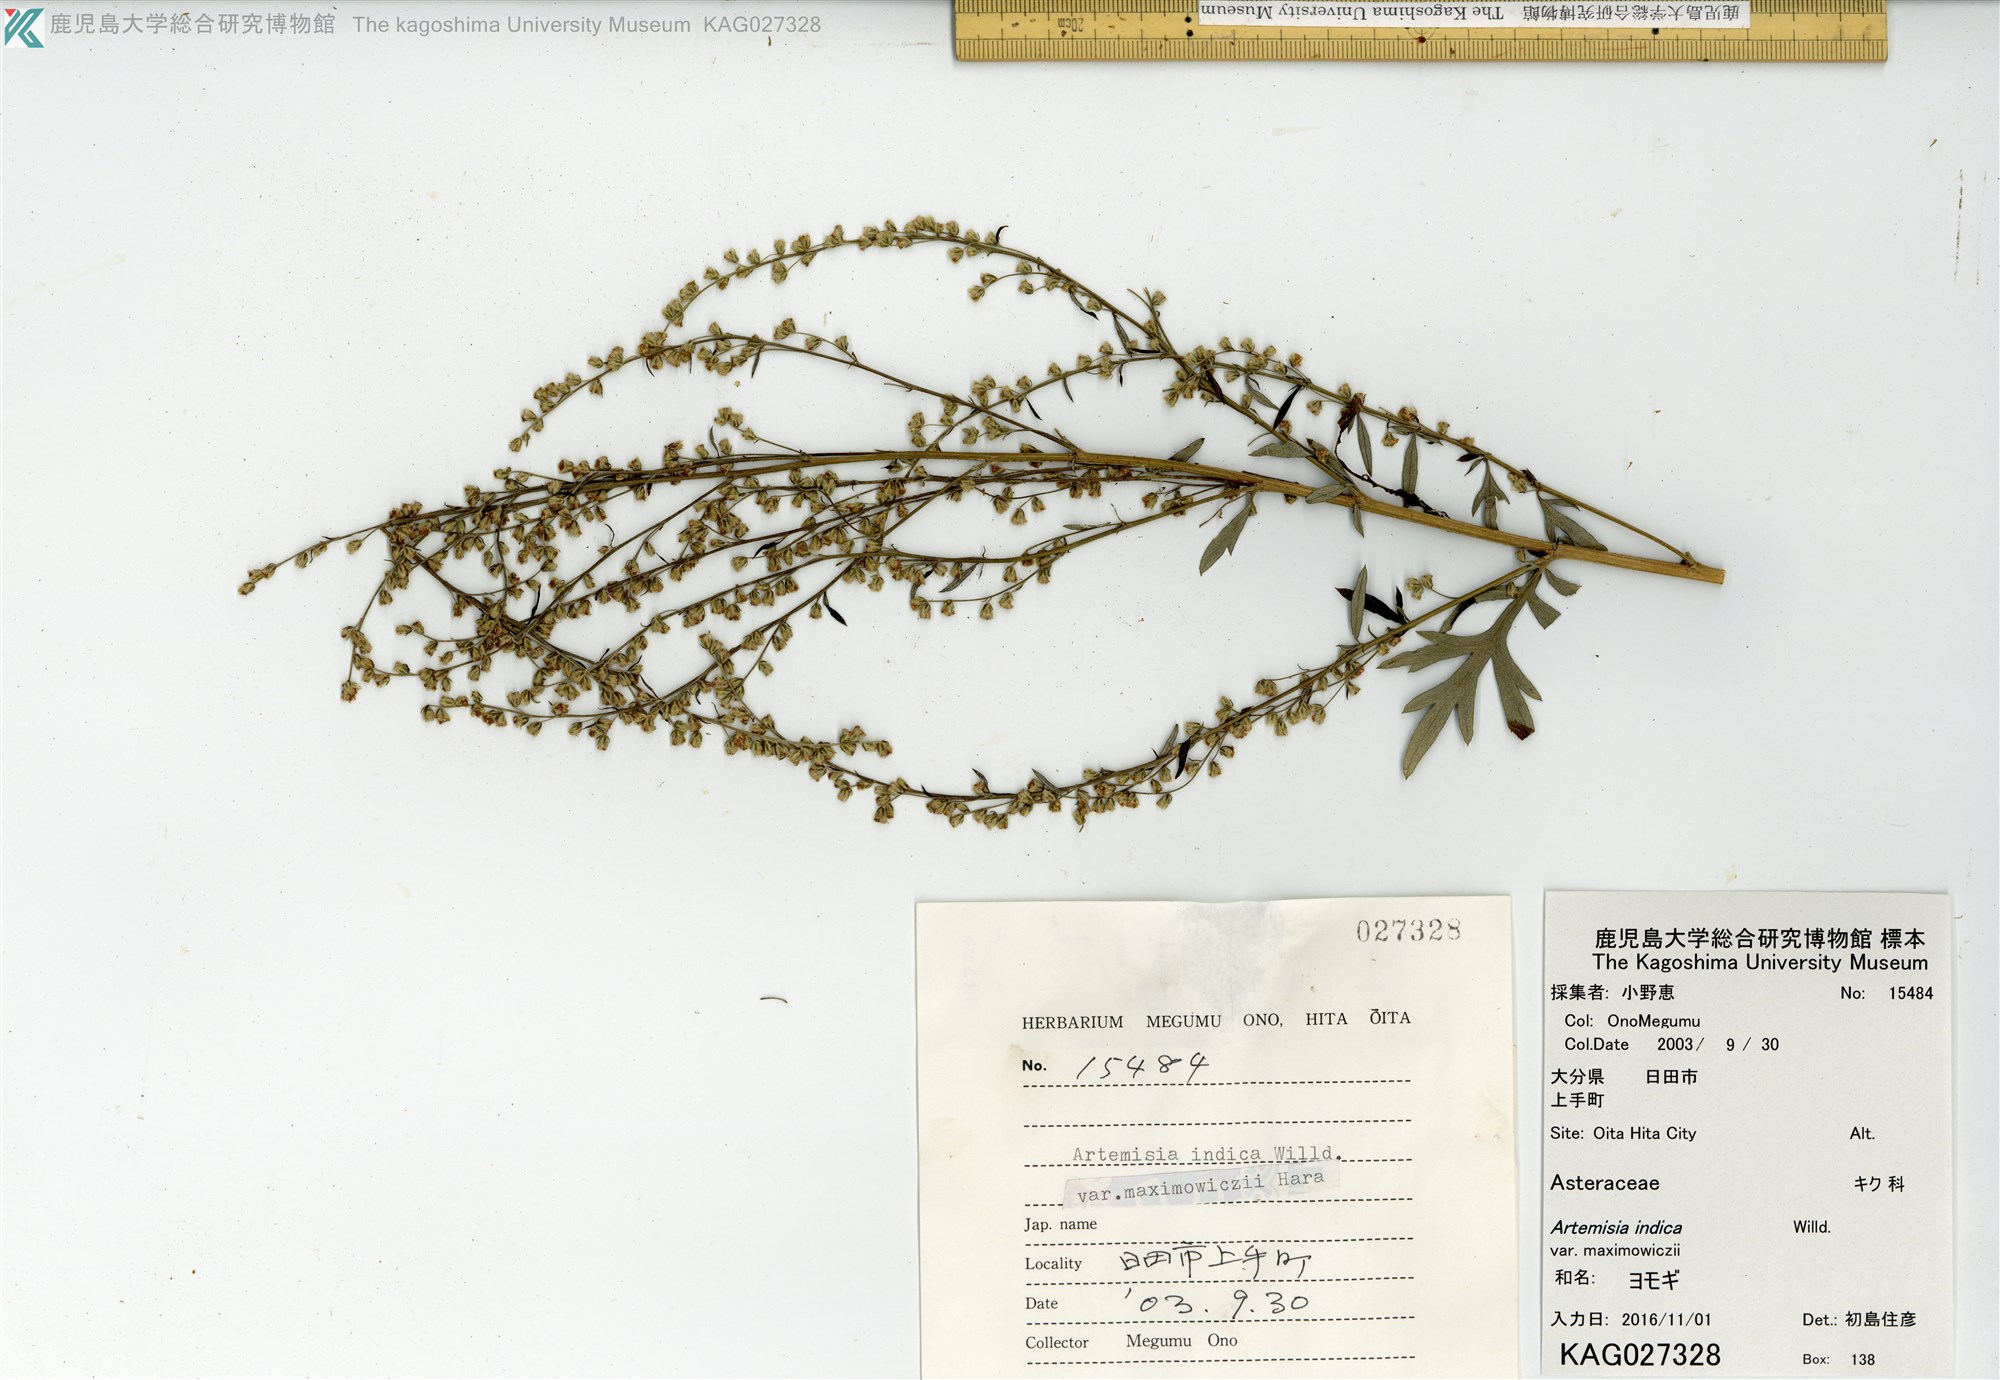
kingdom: Plantae
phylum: Tracheophyta
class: Magnoliopsida
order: Asterales
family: Asteraceae
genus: Artemisia
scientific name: Artemisia princeps
